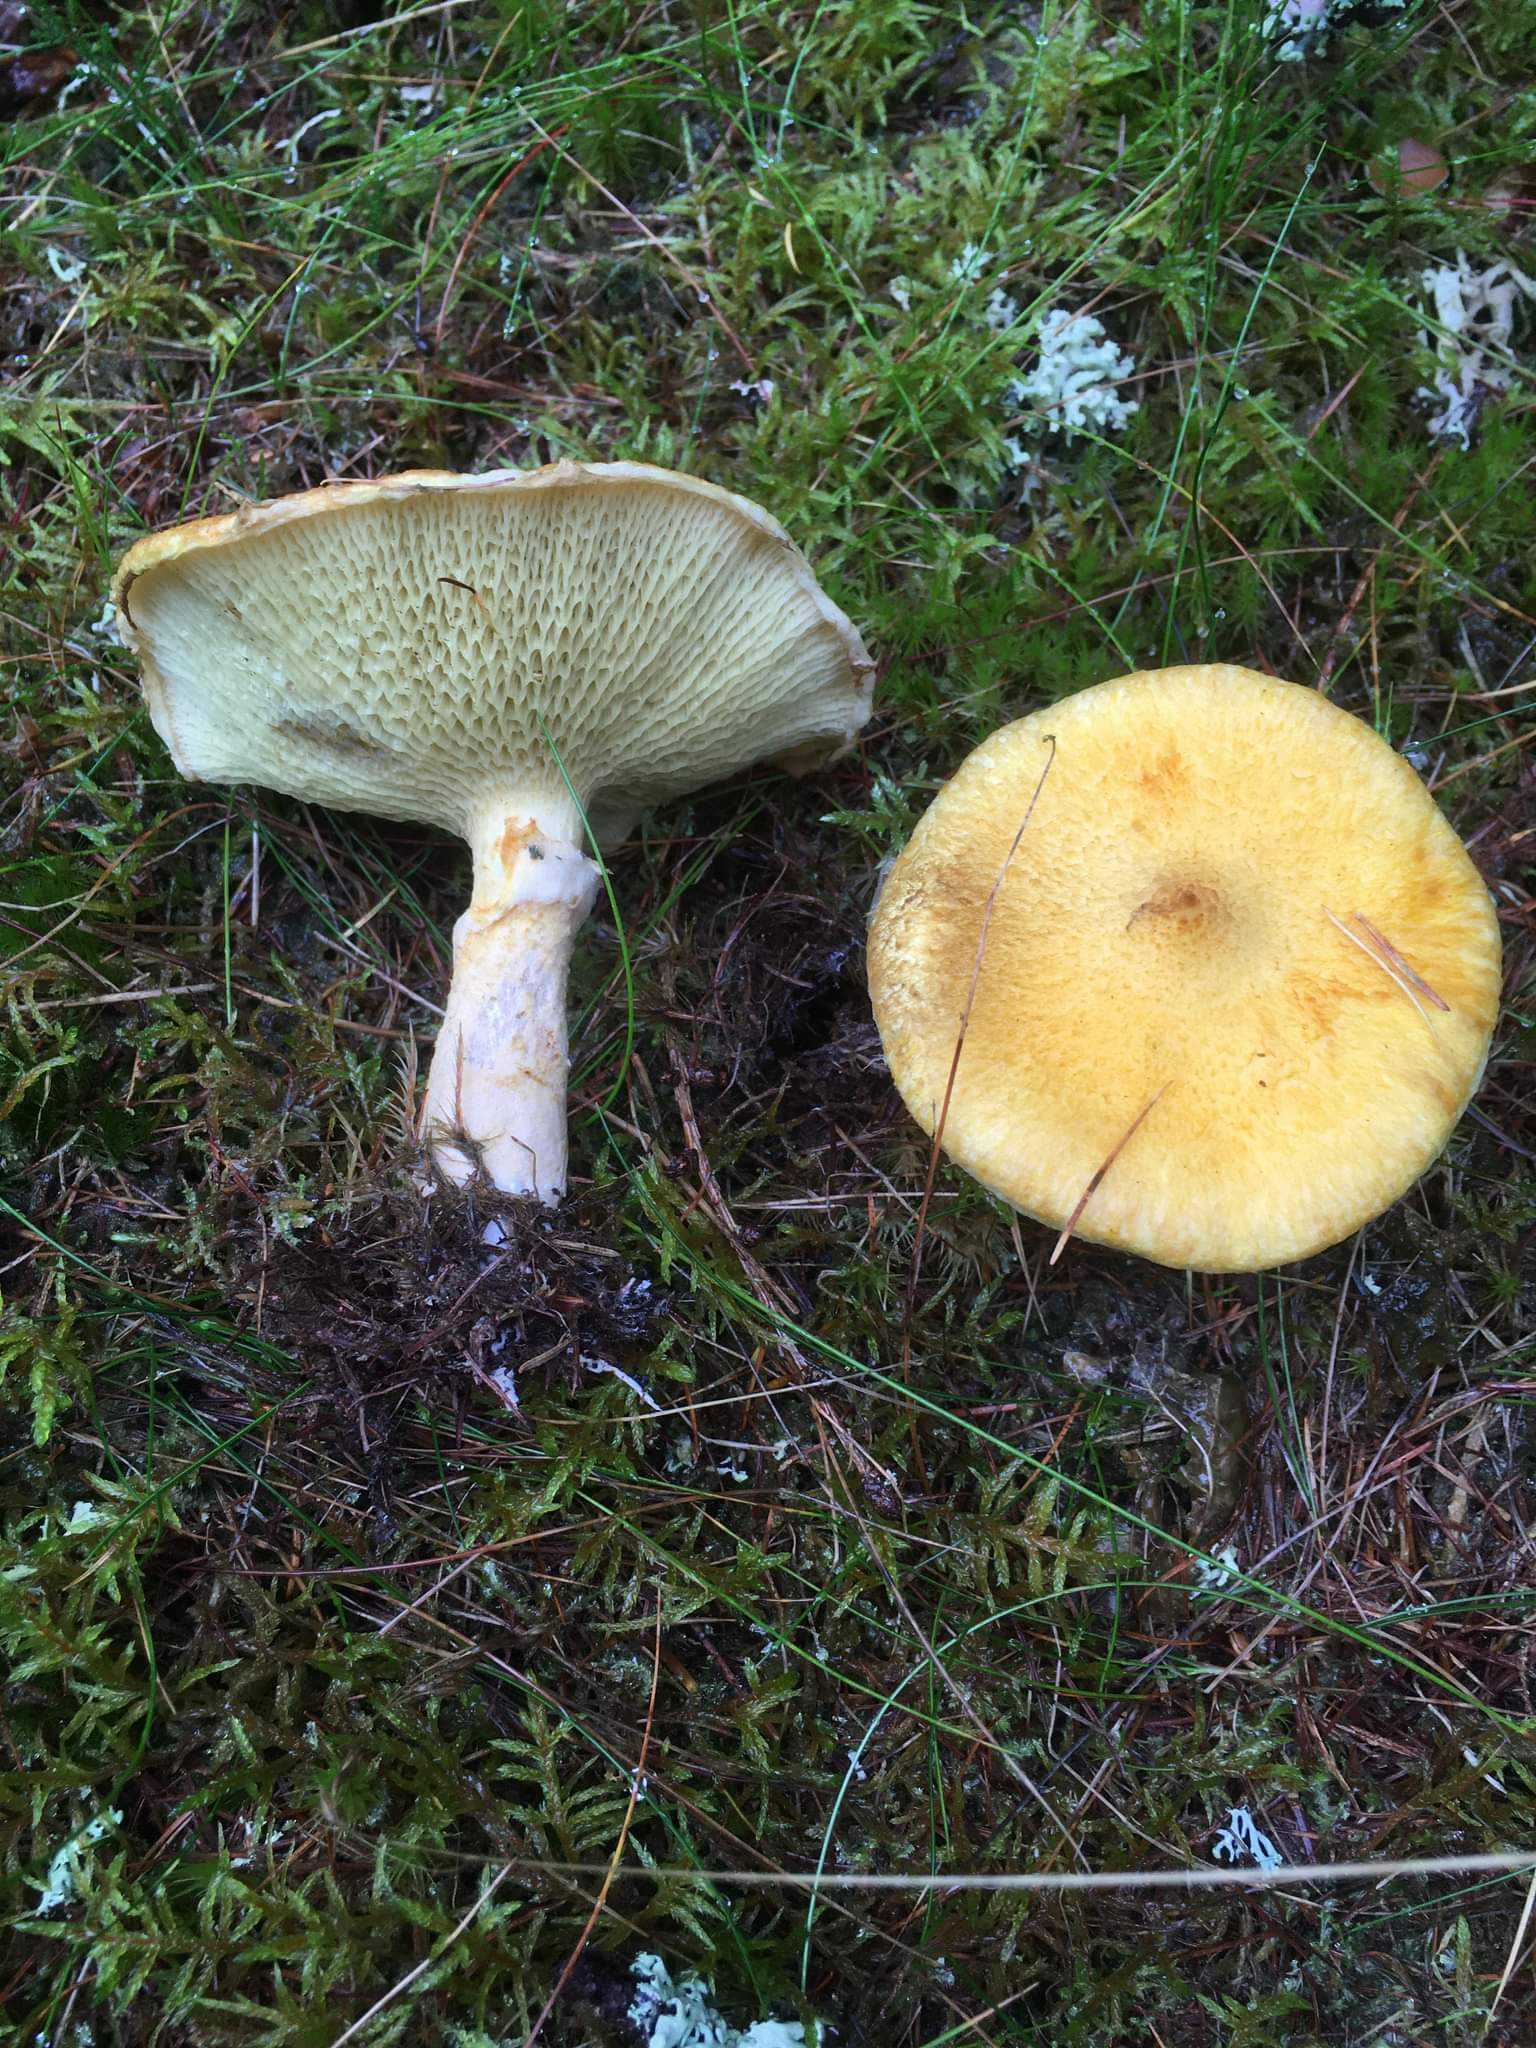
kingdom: Fungi
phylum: Basidiomycota
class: Agaricomycetes
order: Boletales
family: Suillaceae
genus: Suillus
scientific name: Suillus cavipes
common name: hulstokket slimrørhat, gul form
